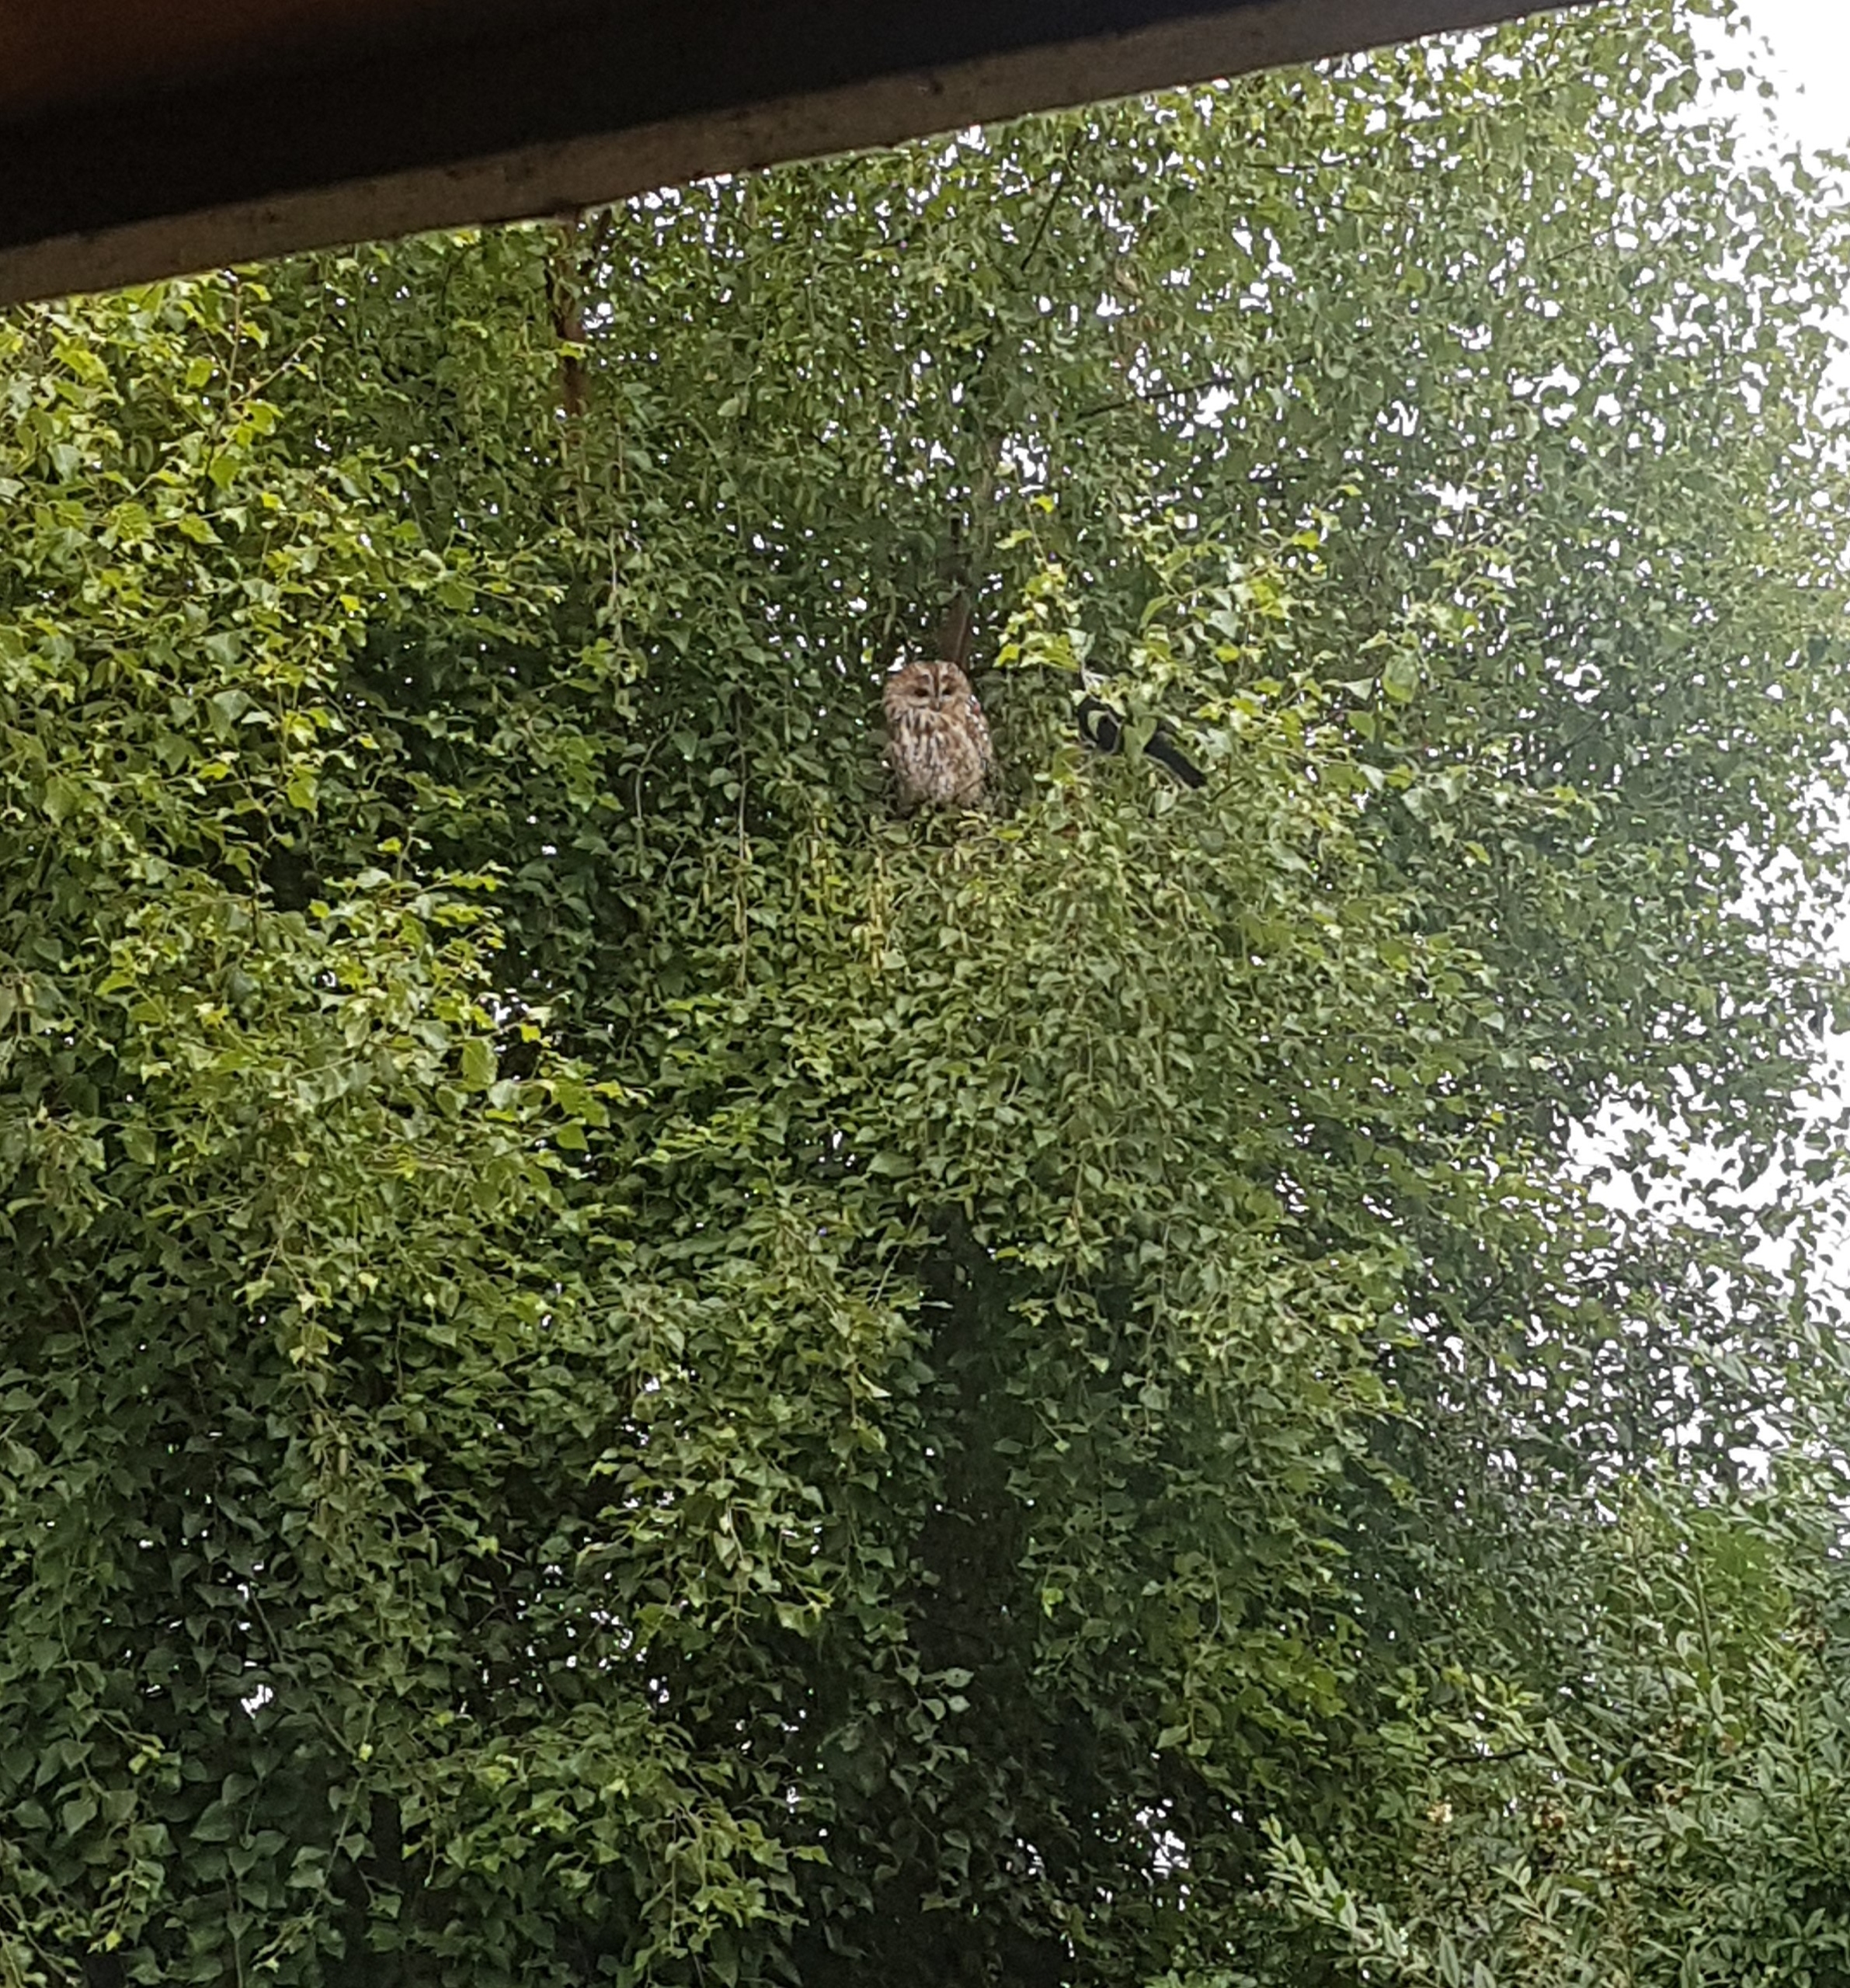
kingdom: Animalia
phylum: Chordata
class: Aves
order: Strigiformes
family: Strigidae
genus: Strix
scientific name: Strix aluco
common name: Natugle
